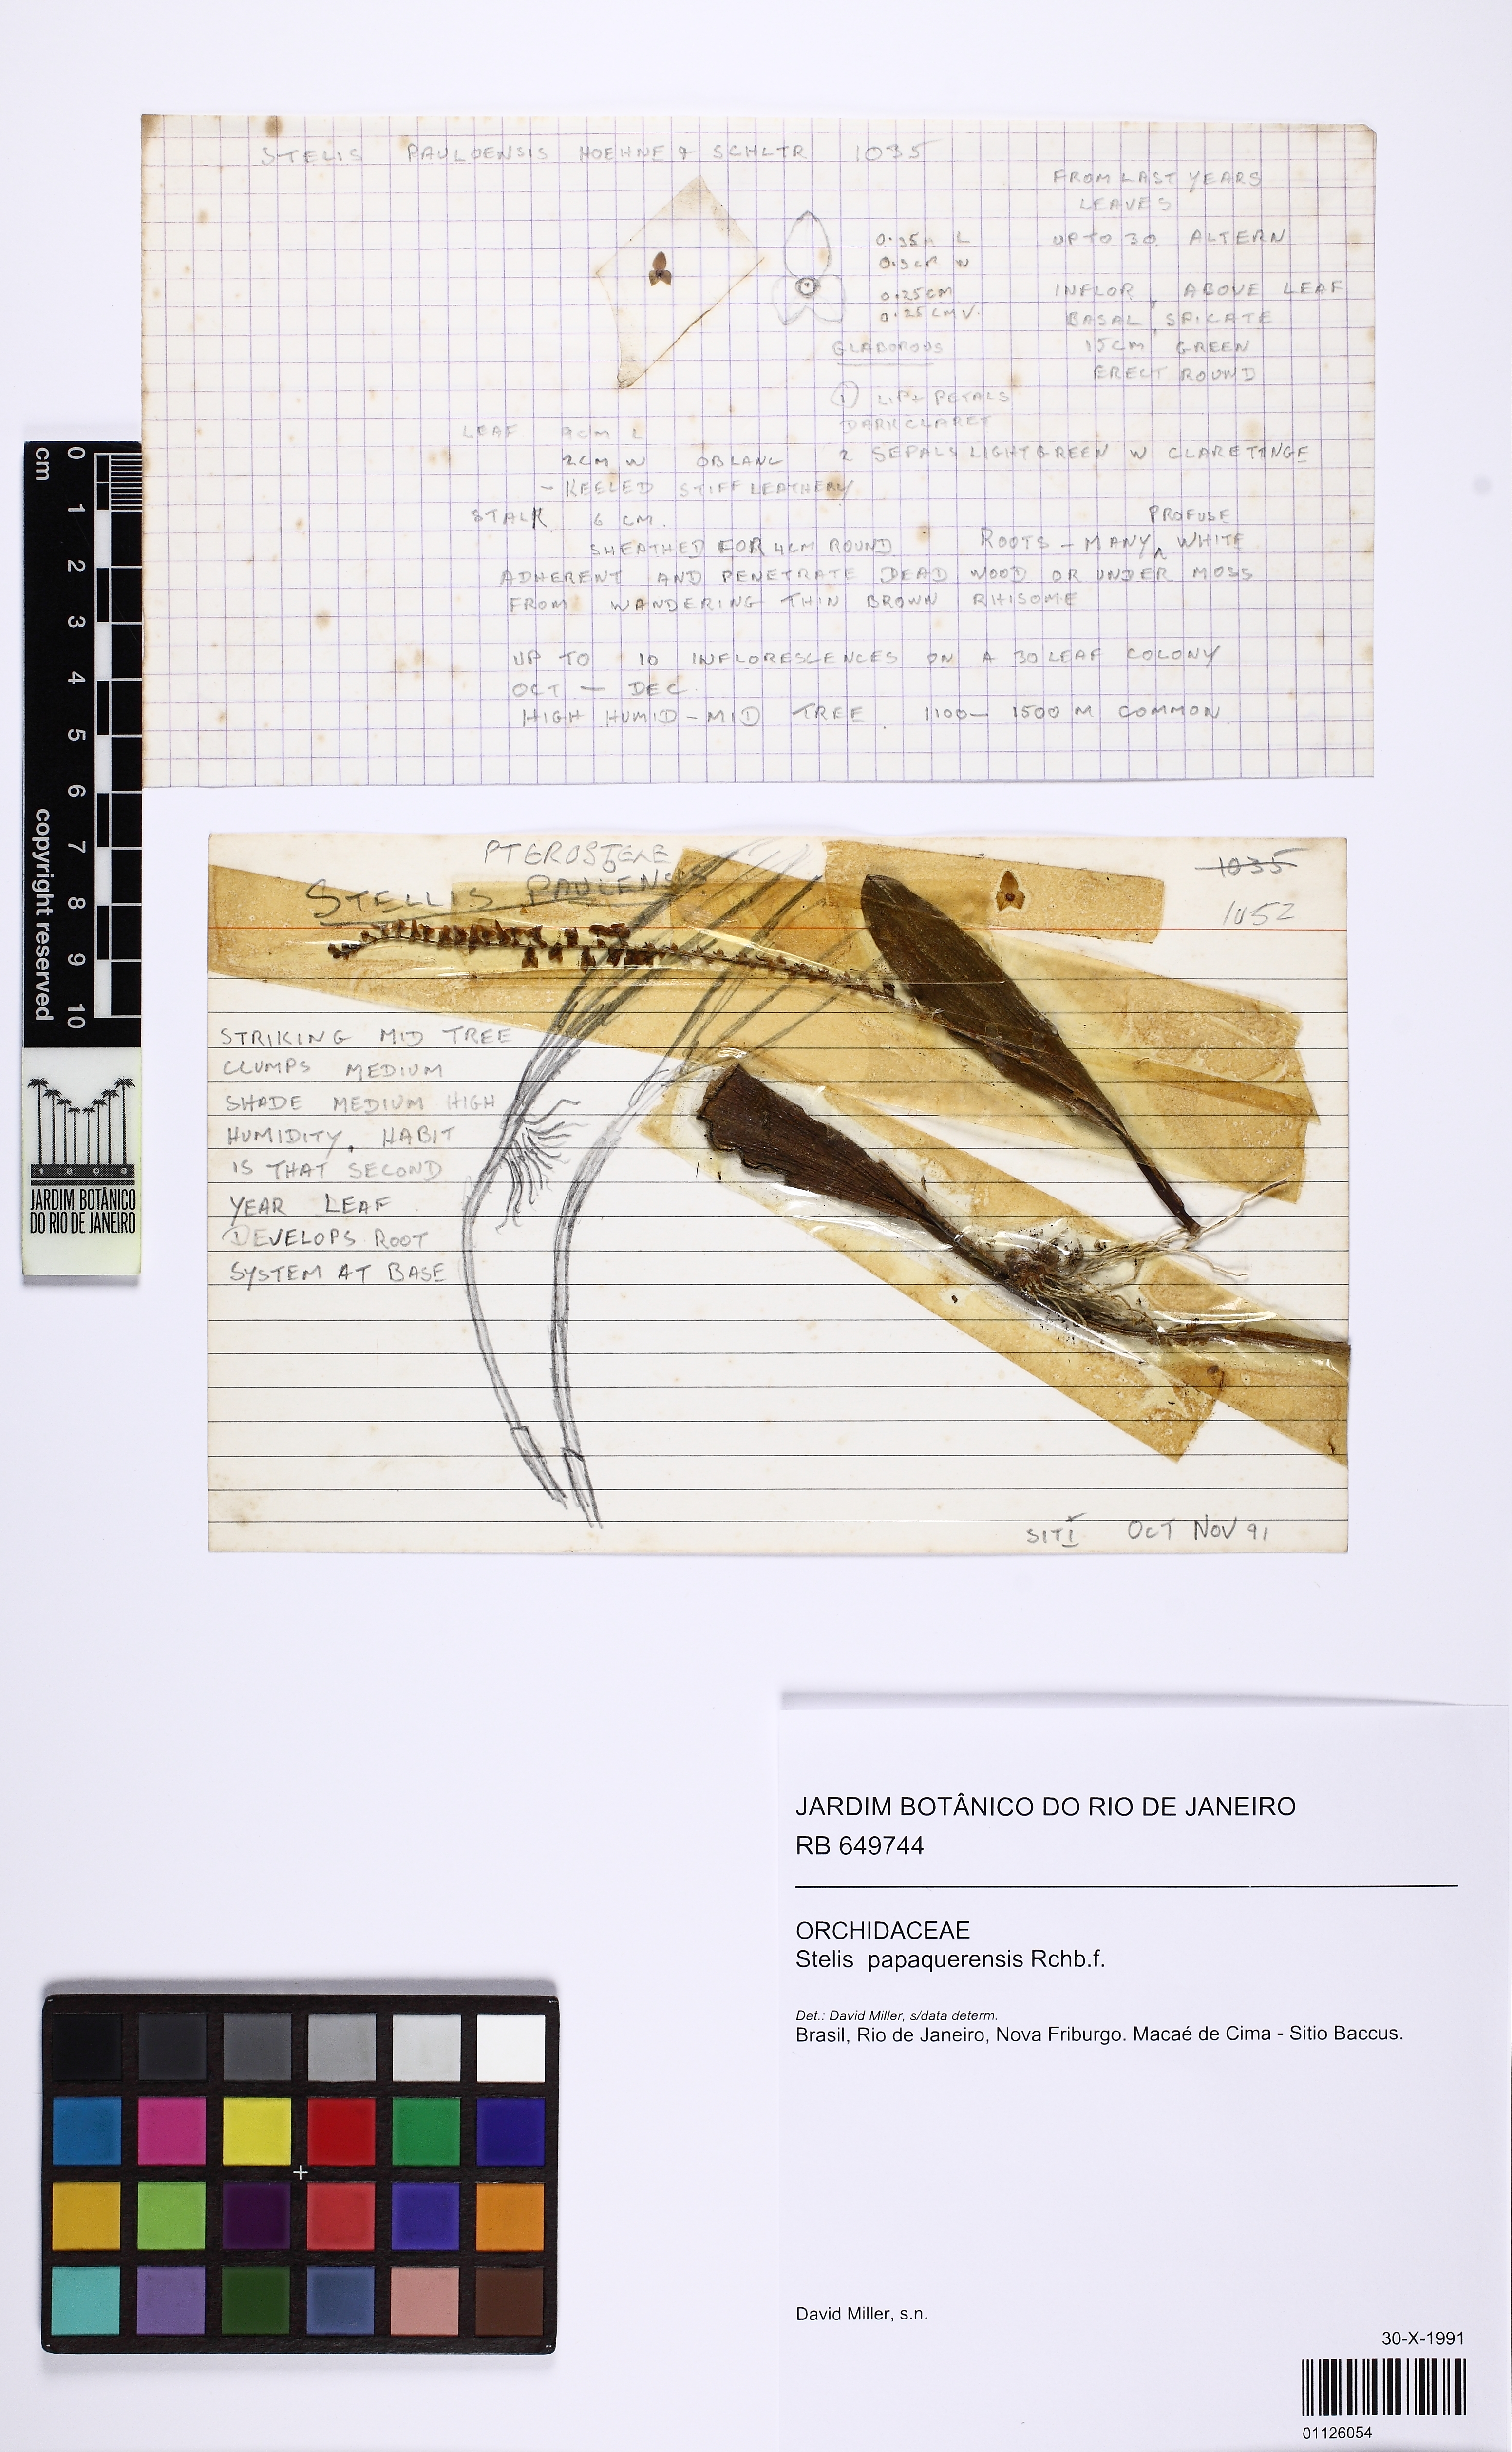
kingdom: Plantae
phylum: Tracheophyta
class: Liliopsida
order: Asparagales
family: Orchidaceae
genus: Stelis
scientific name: Stelis papaquerensis
